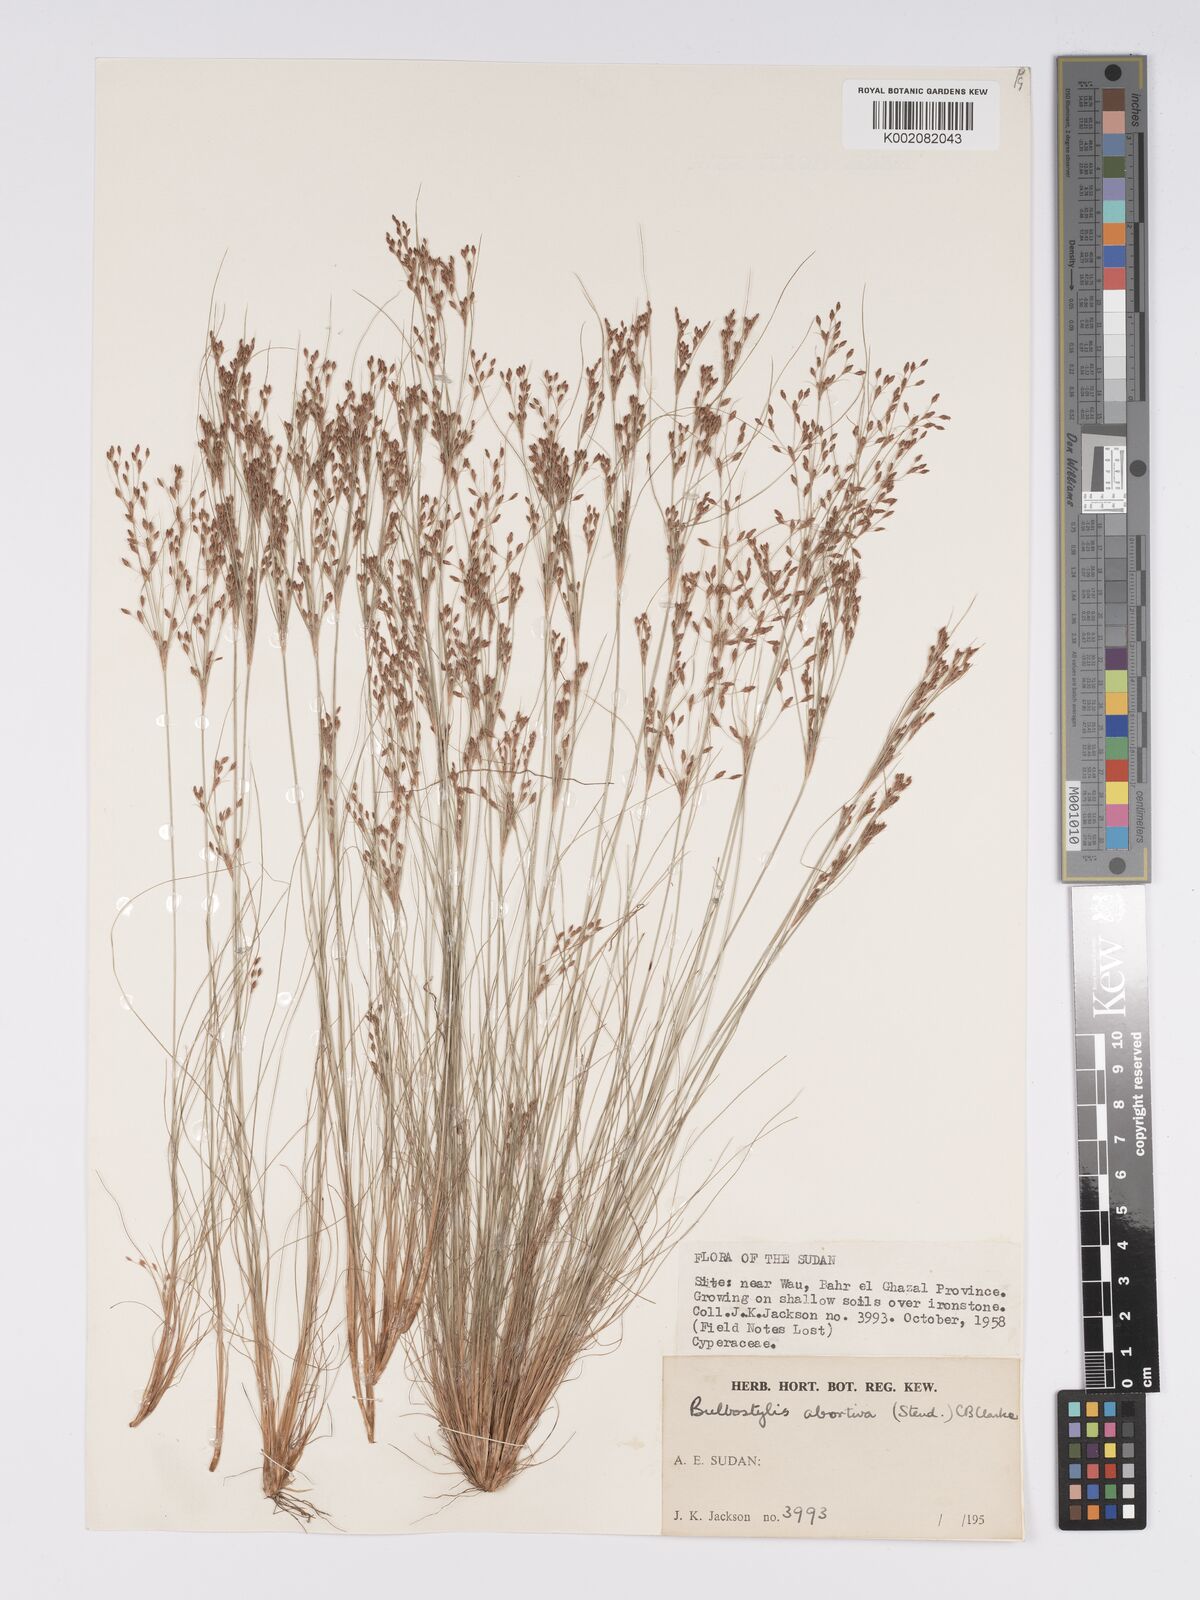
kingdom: Plantae
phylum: Tracheophyta
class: Liliopsida
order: Poales
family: Cyperaceae
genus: Bulbostylis
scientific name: Bulbostylis abortiva
